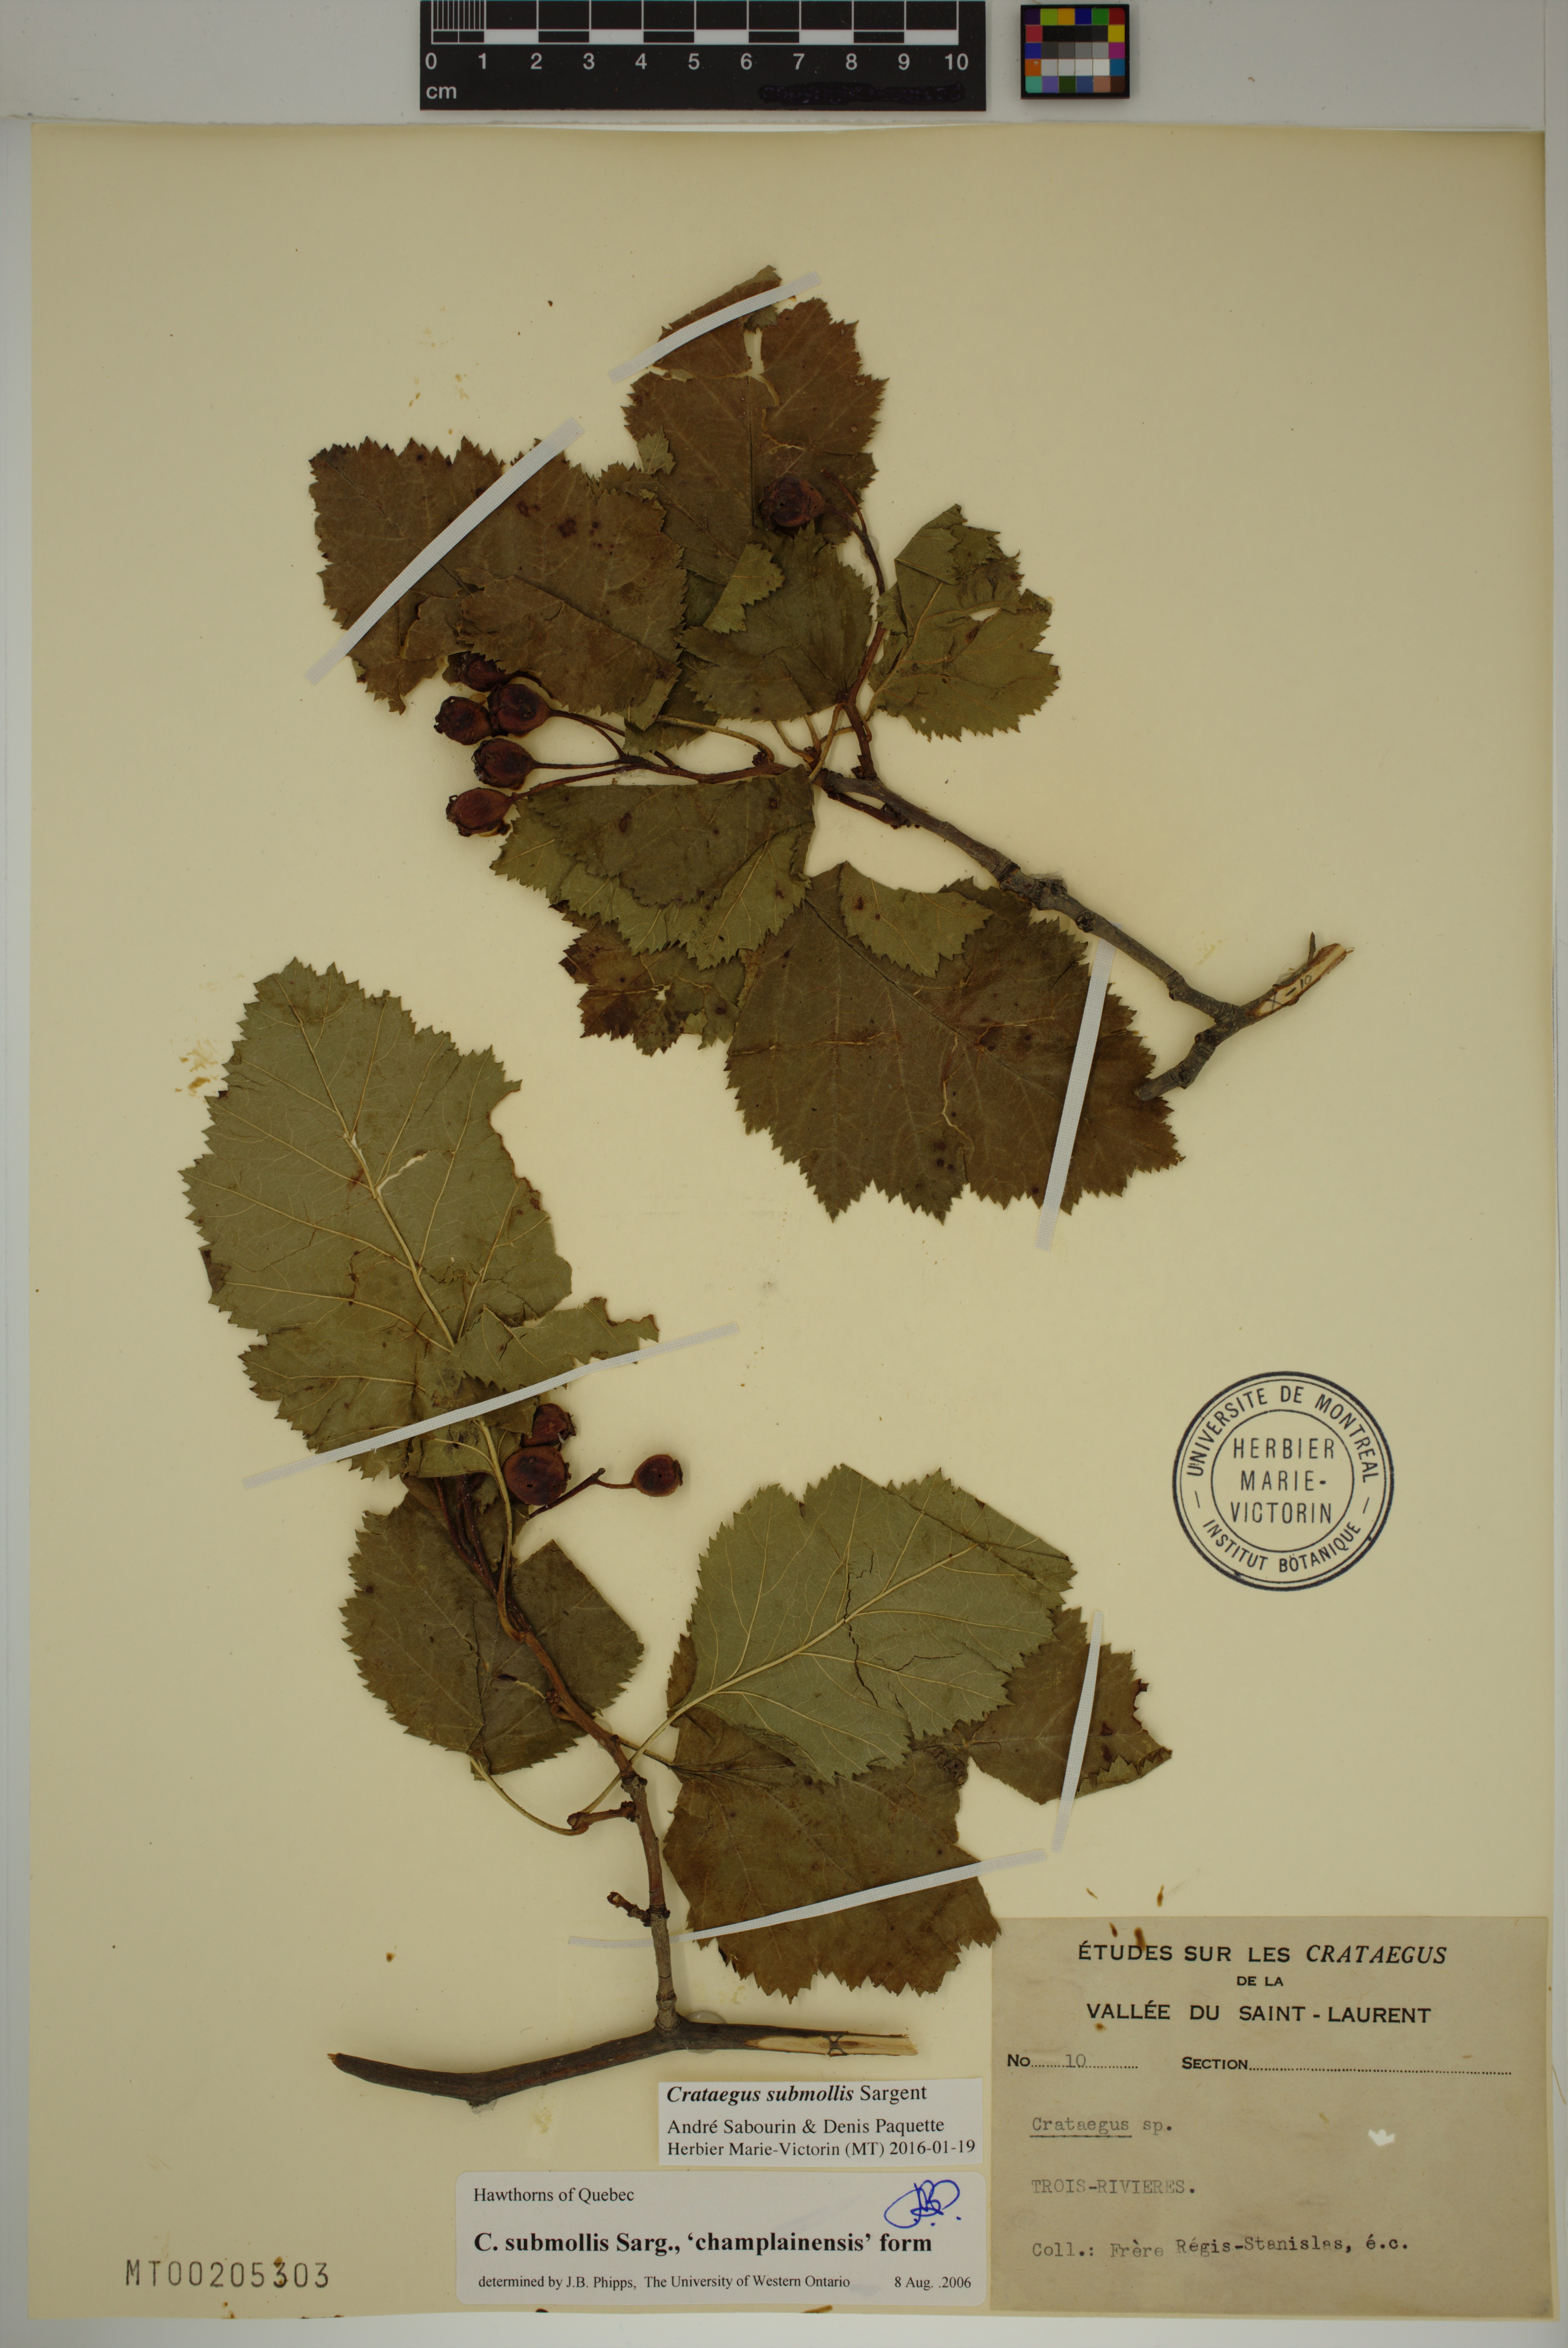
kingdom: Plantae
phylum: Tracheophyta
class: Magnoliopsida
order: Rosales
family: Rosaceae
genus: Crataegus
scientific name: Crataegus submollis
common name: Hairy cockspurthorn
